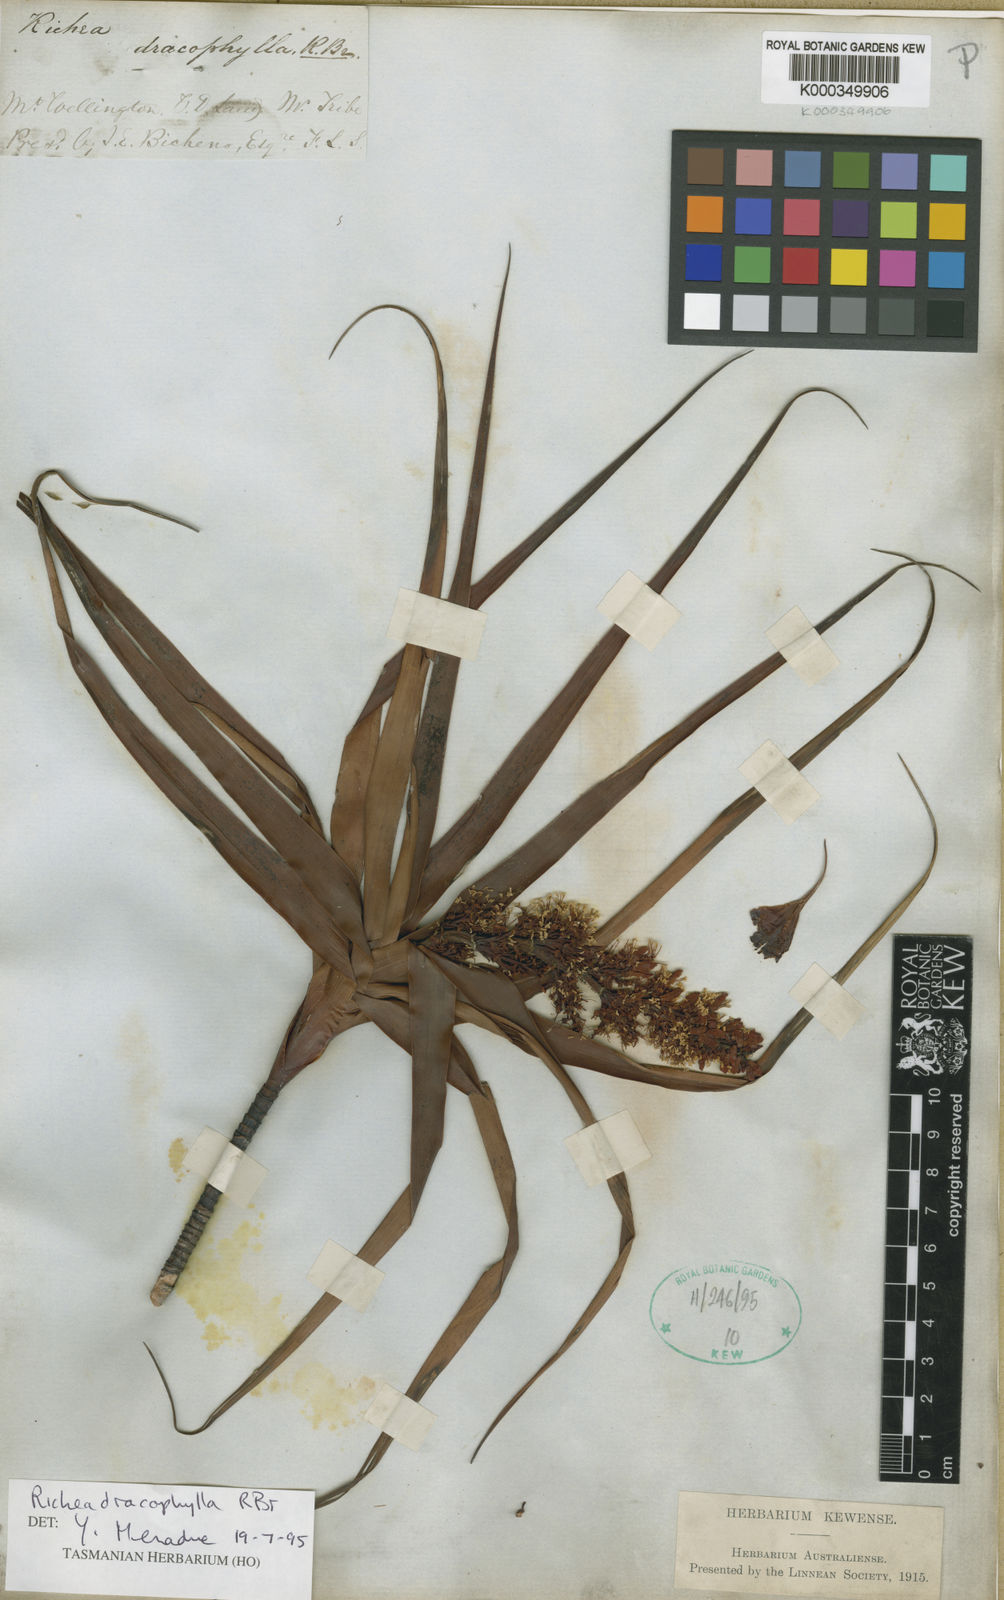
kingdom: Plantae
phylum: Tracheophyta
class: Magnoliopsida
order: Ericales
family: Ericaceae
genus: Dracophyllum
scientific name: Dracophyllum desgrazii
